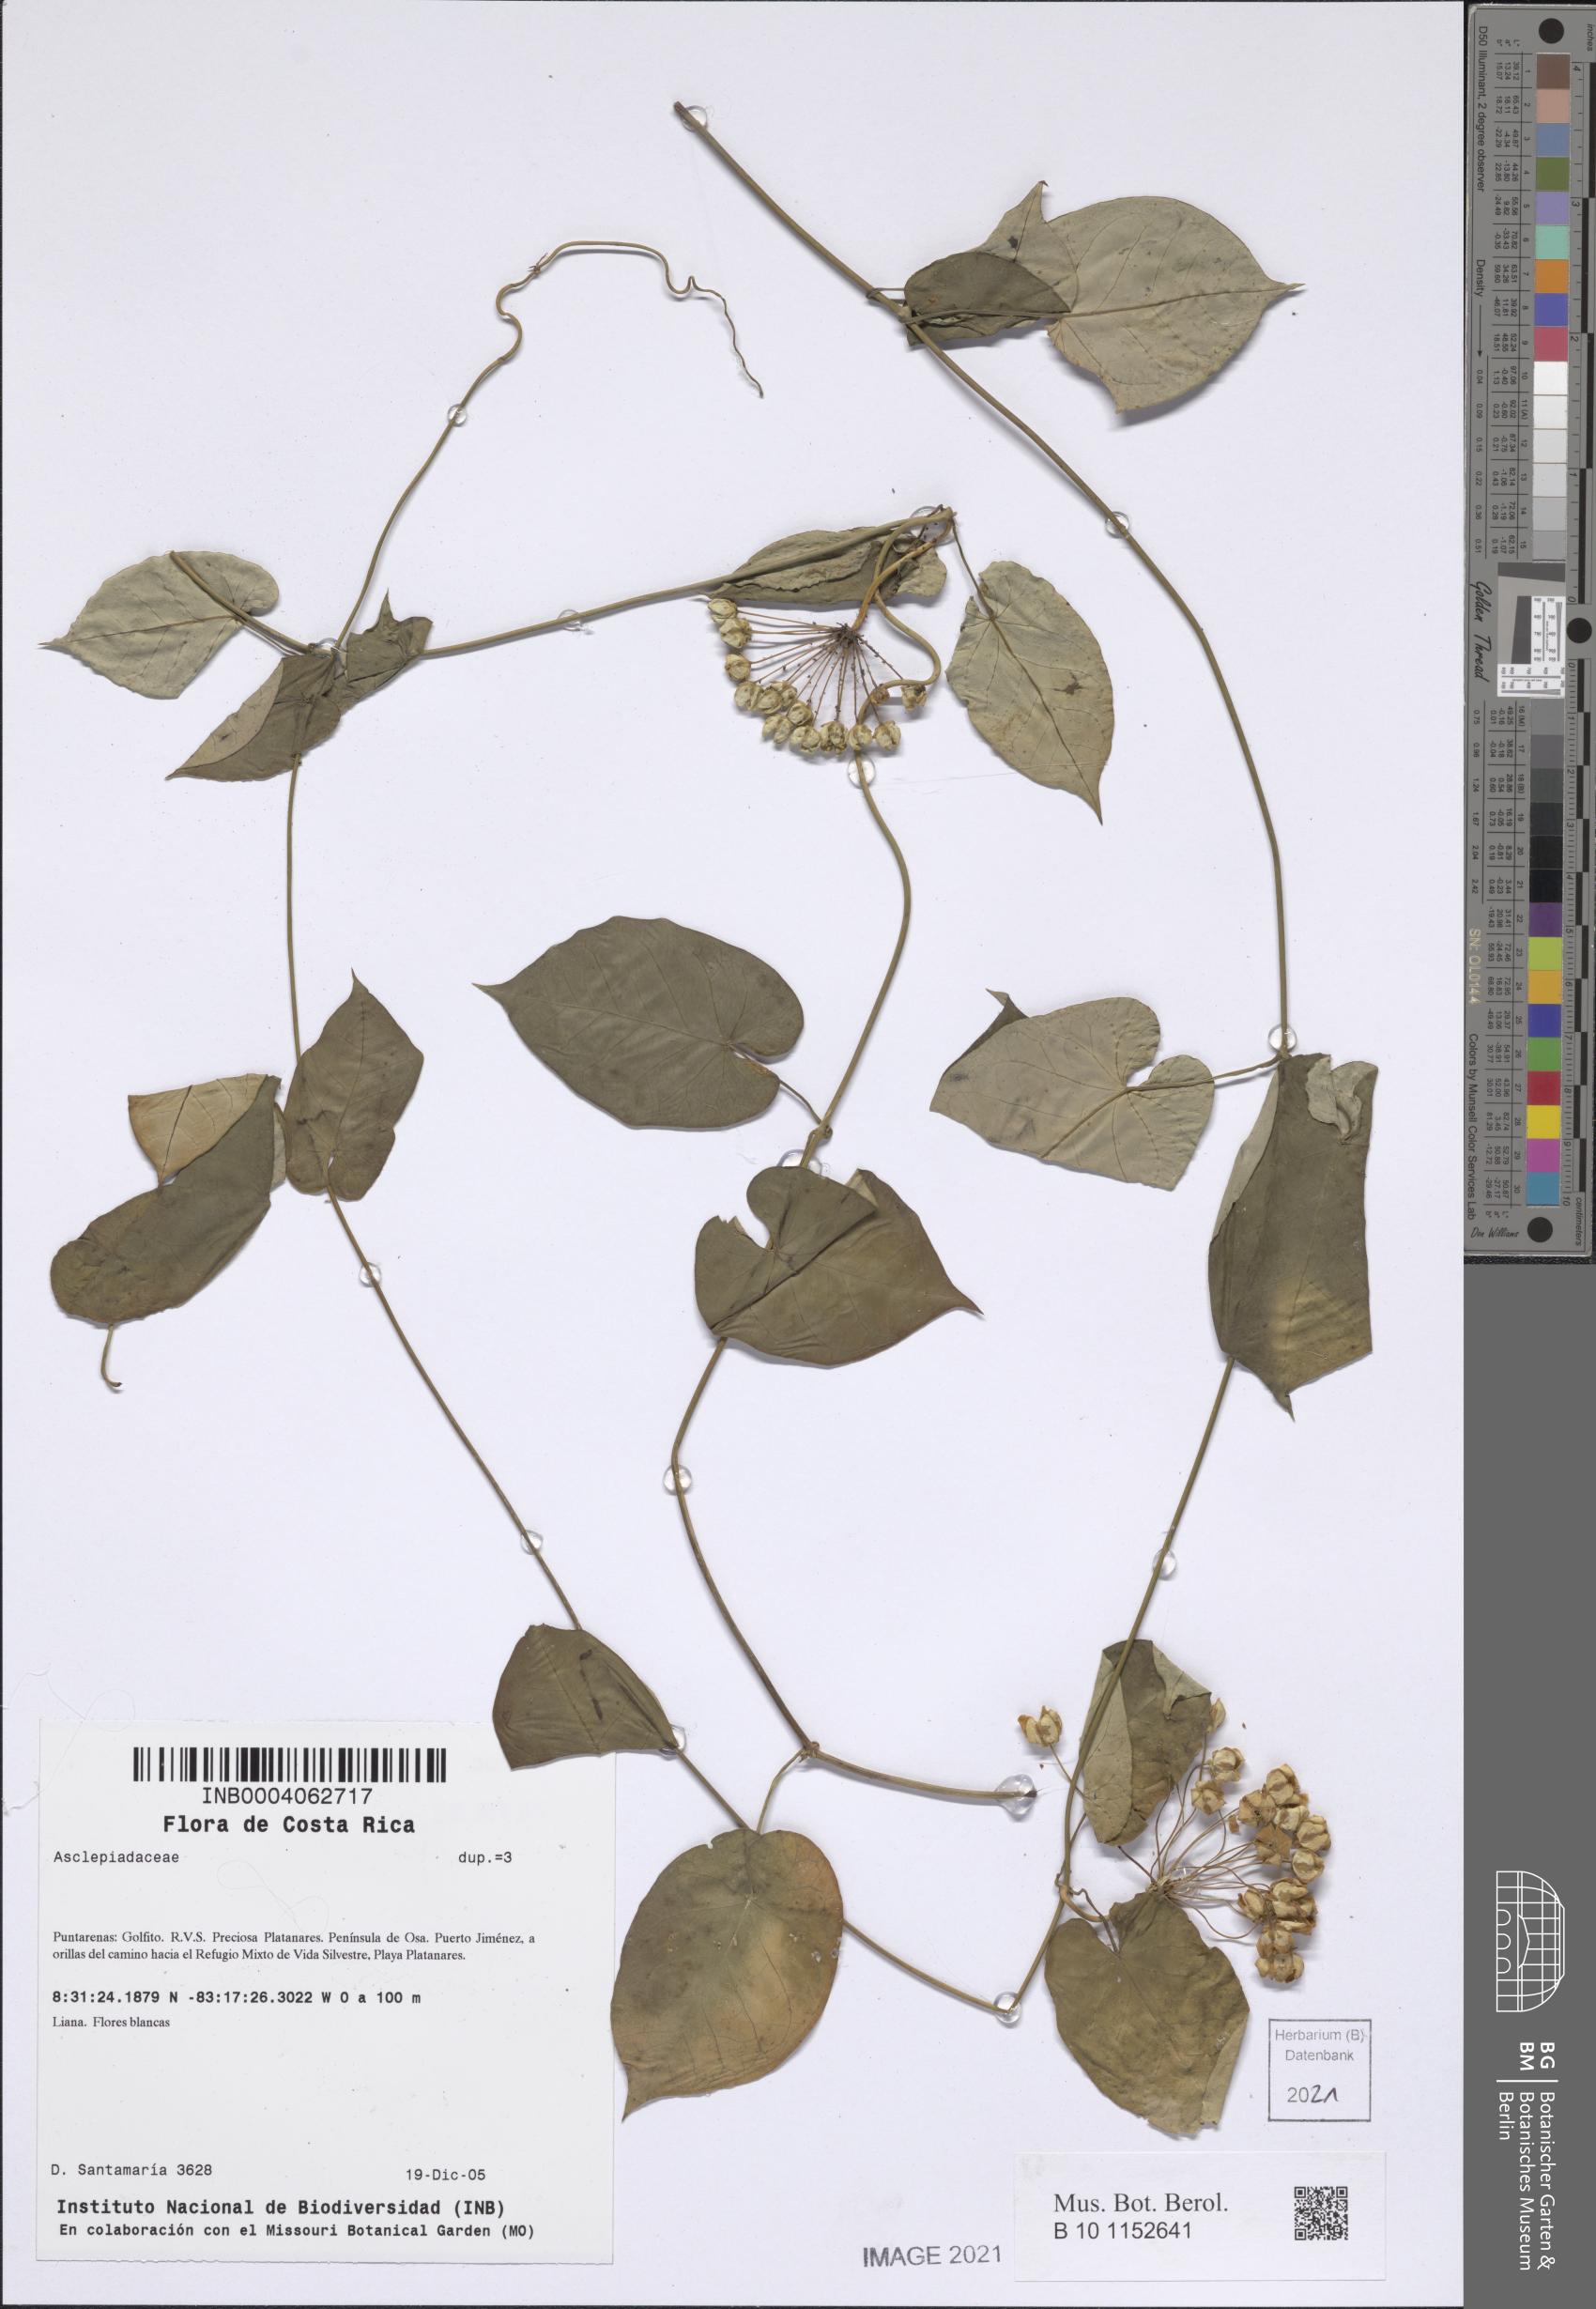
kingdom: Plantae
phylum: Tracheophyta
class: Magnoliopsida
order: Gentianales
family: Apocynaceae
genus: Funastrum
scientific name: Funastrum bilobum
